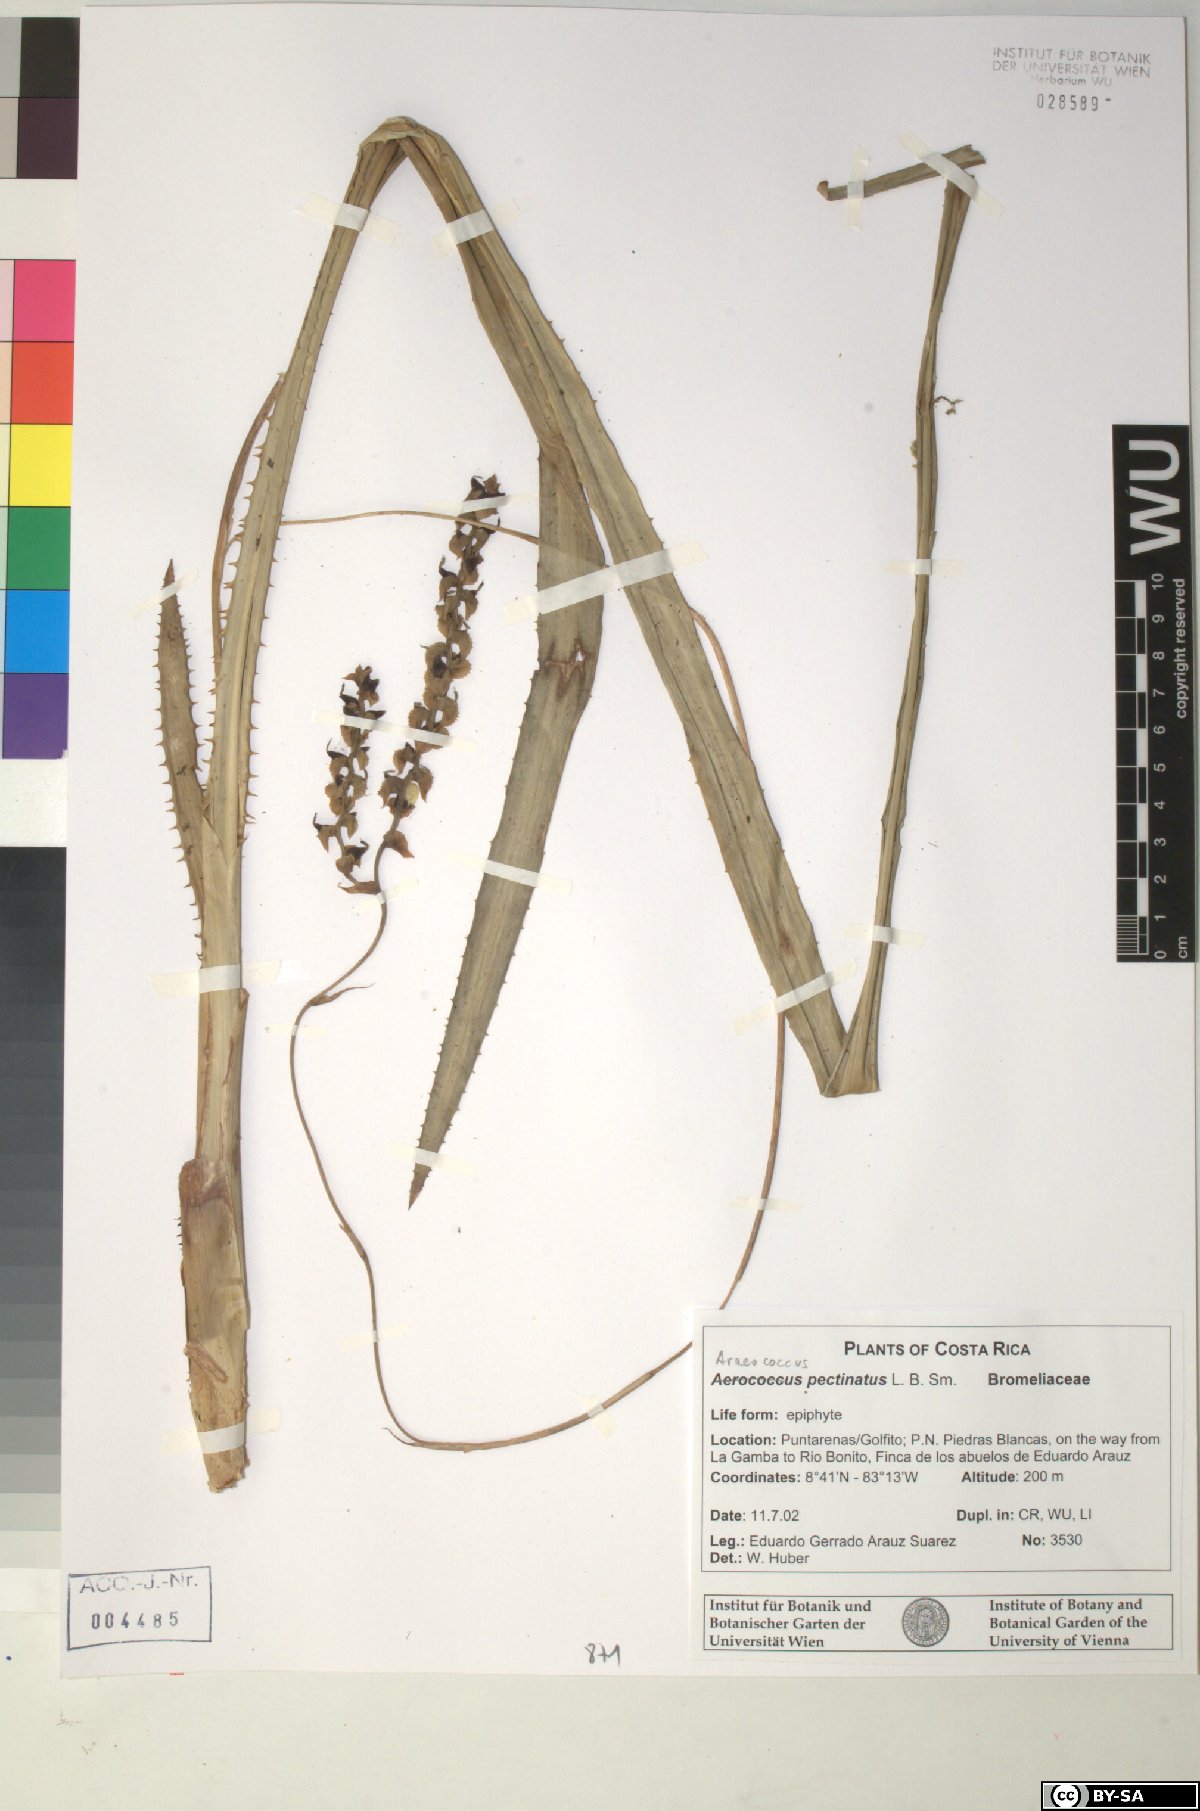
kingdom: Plantae
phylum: Tracheophyta
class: Liliopsida
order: Poales
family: Bromeliaceae
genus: Araeococcus
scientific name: Araeococcus pectinatus
